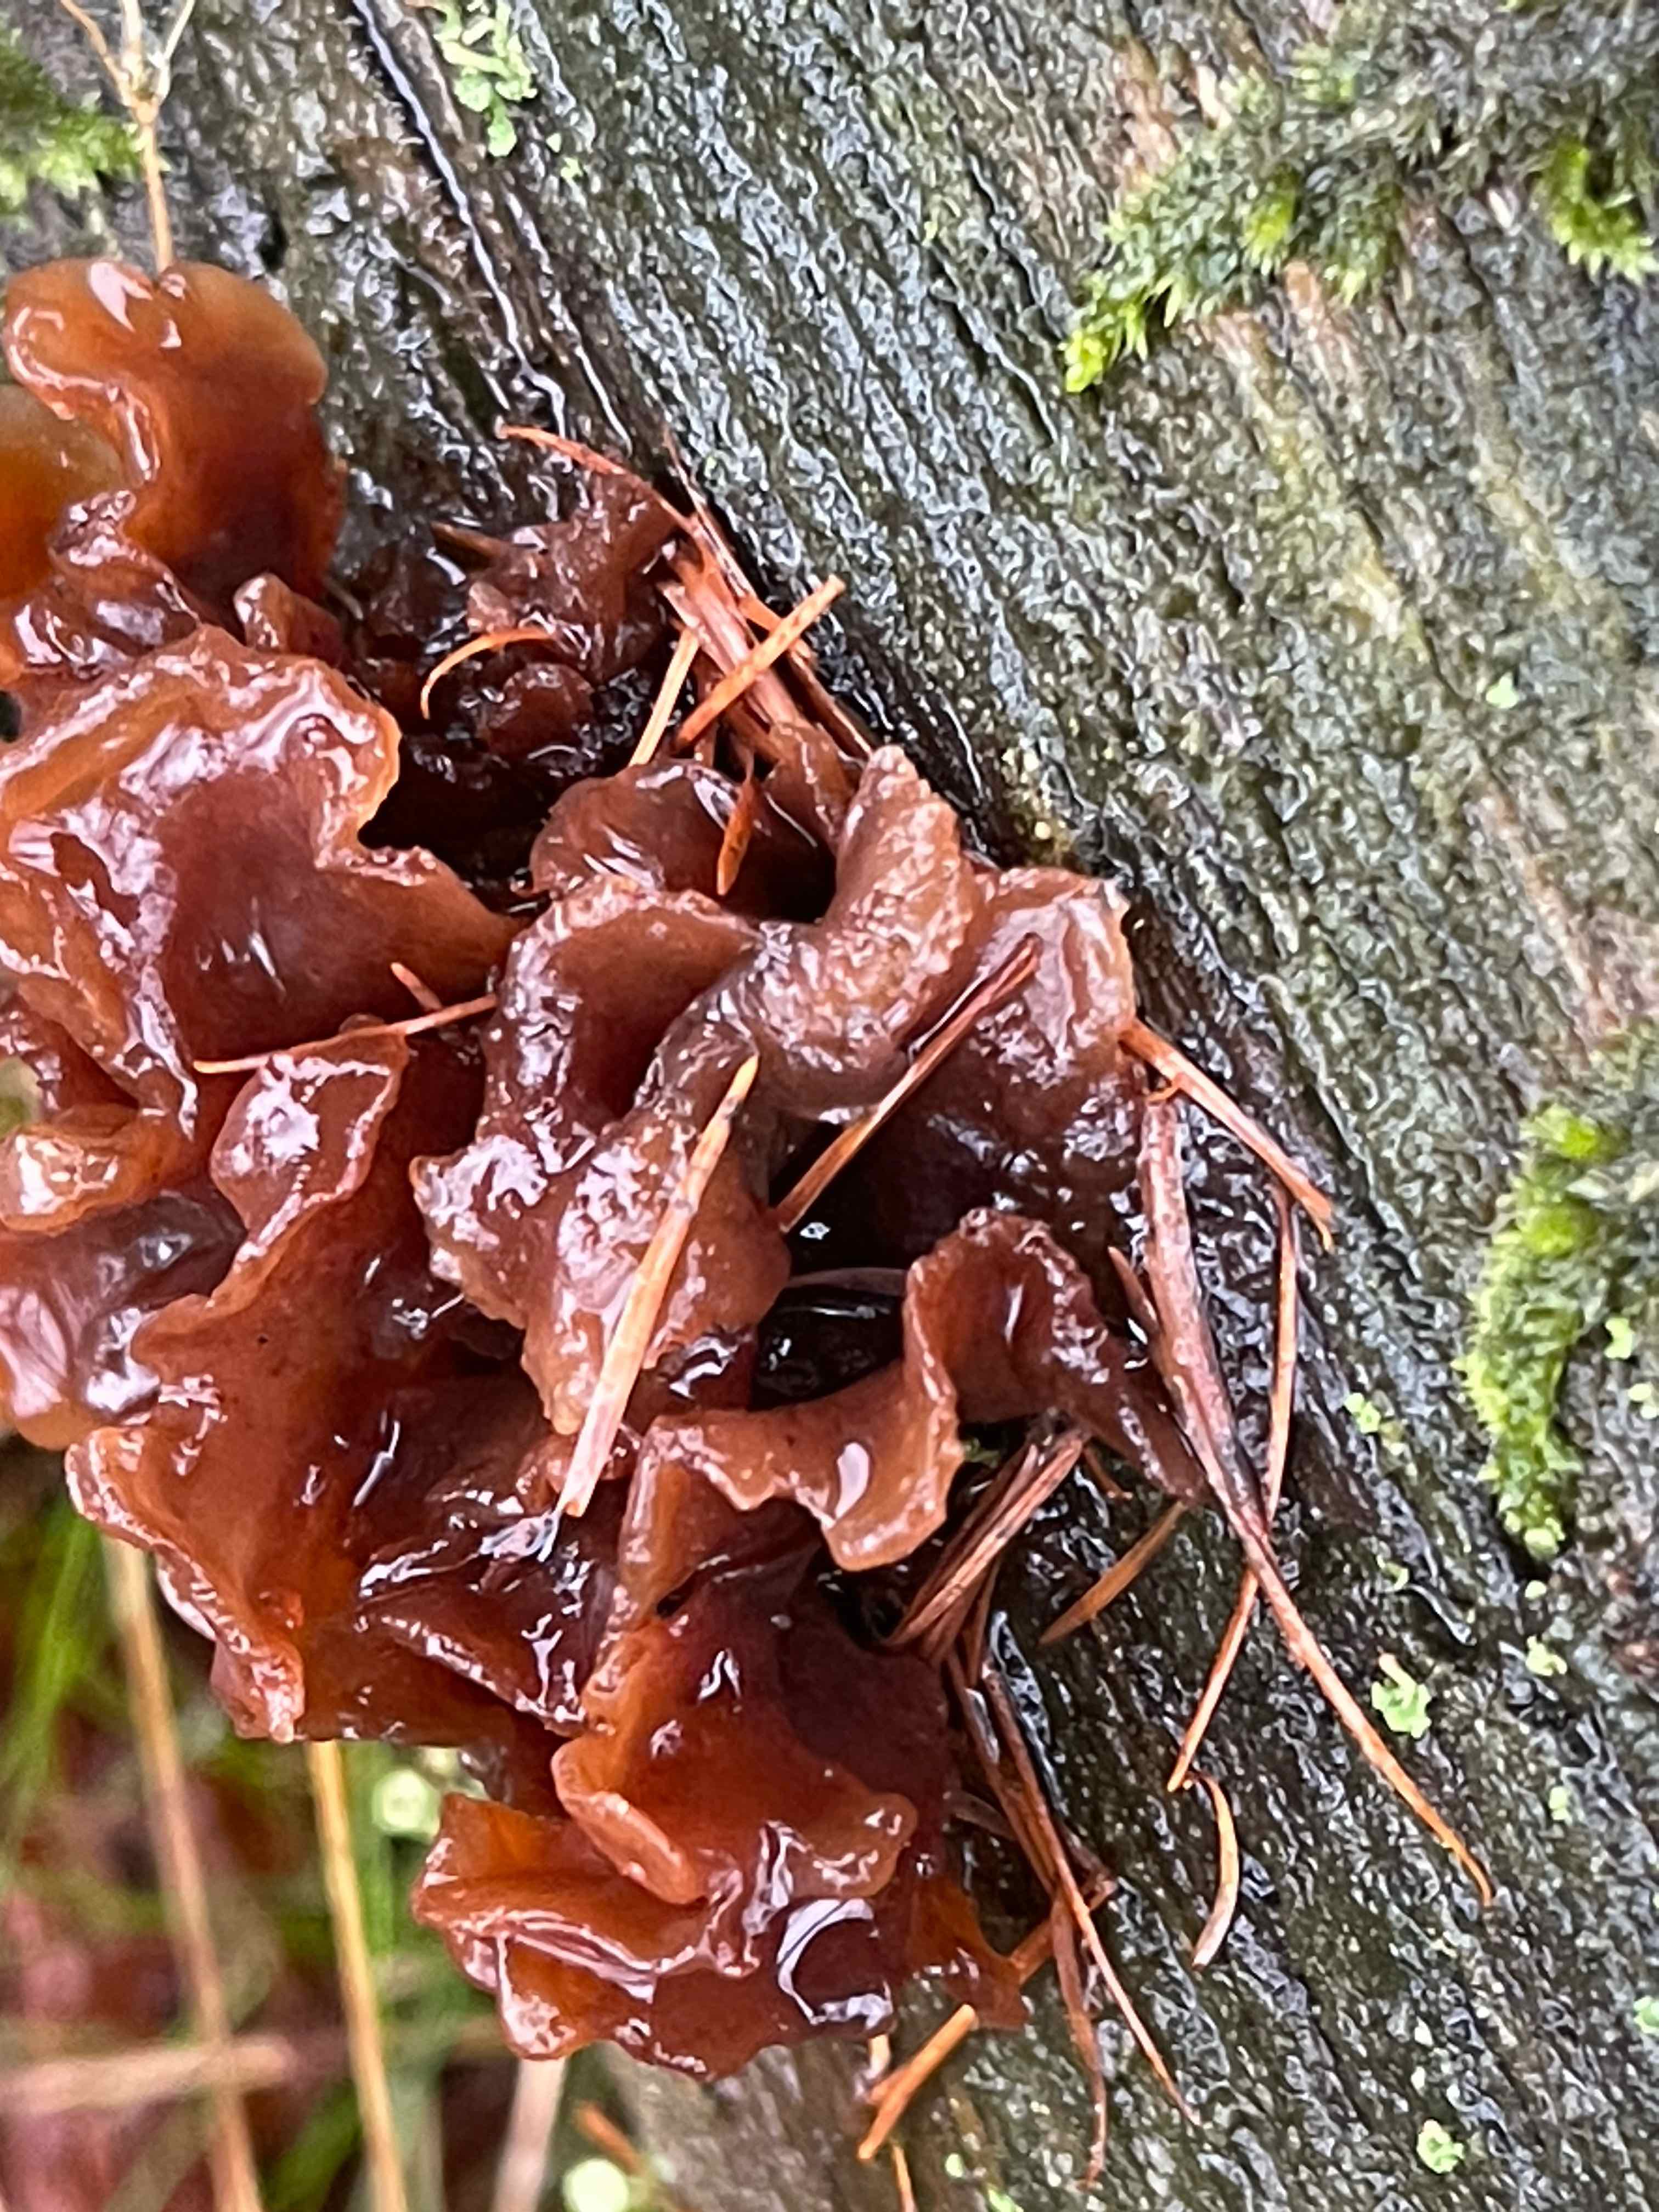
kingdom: Fungi
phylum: Basidiomycota
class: Tremellomycetes
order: Tremellales
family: Tremellaceae
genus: Phaeotremella
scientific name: Phaeotremella foliacea
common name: brun bævresvamp
